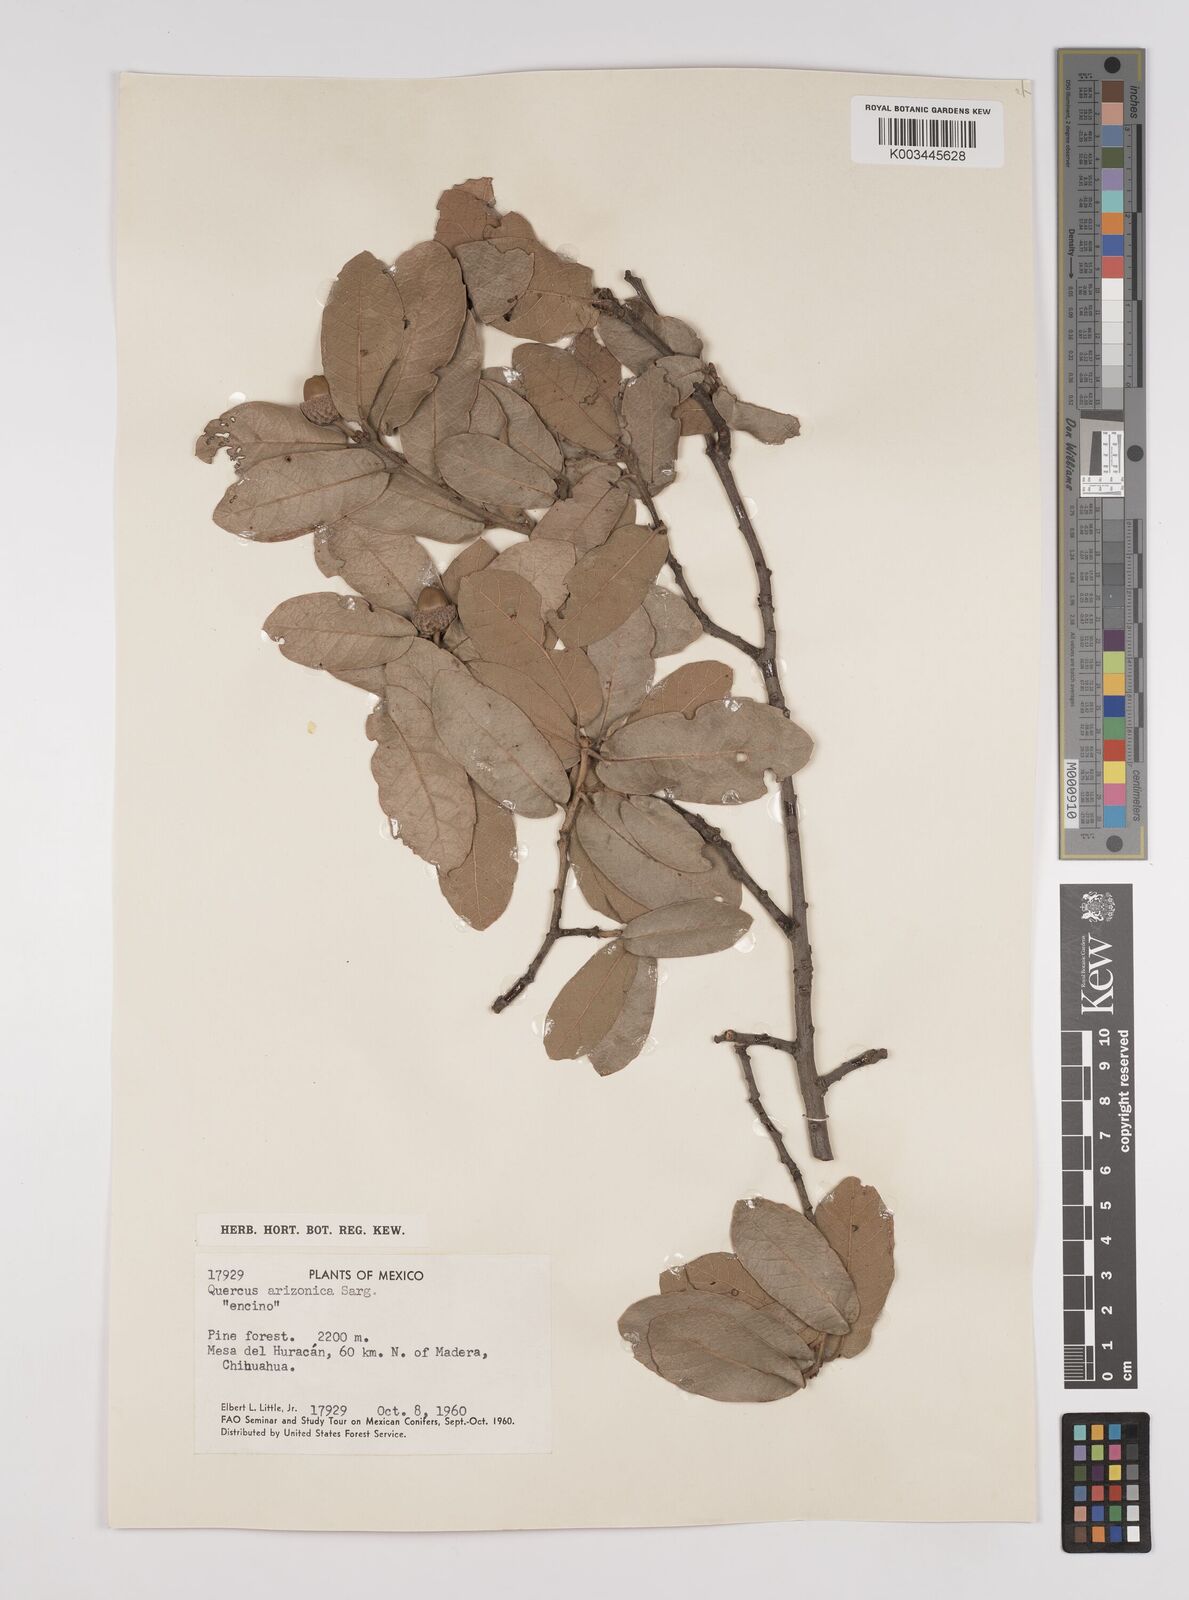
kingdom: Plantae
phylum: Tracheophyta
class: Magnoliopsida
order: Fagales
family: Fagaceae
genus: Quercus
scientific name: Quercus arizonica
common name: Arizona white oak
